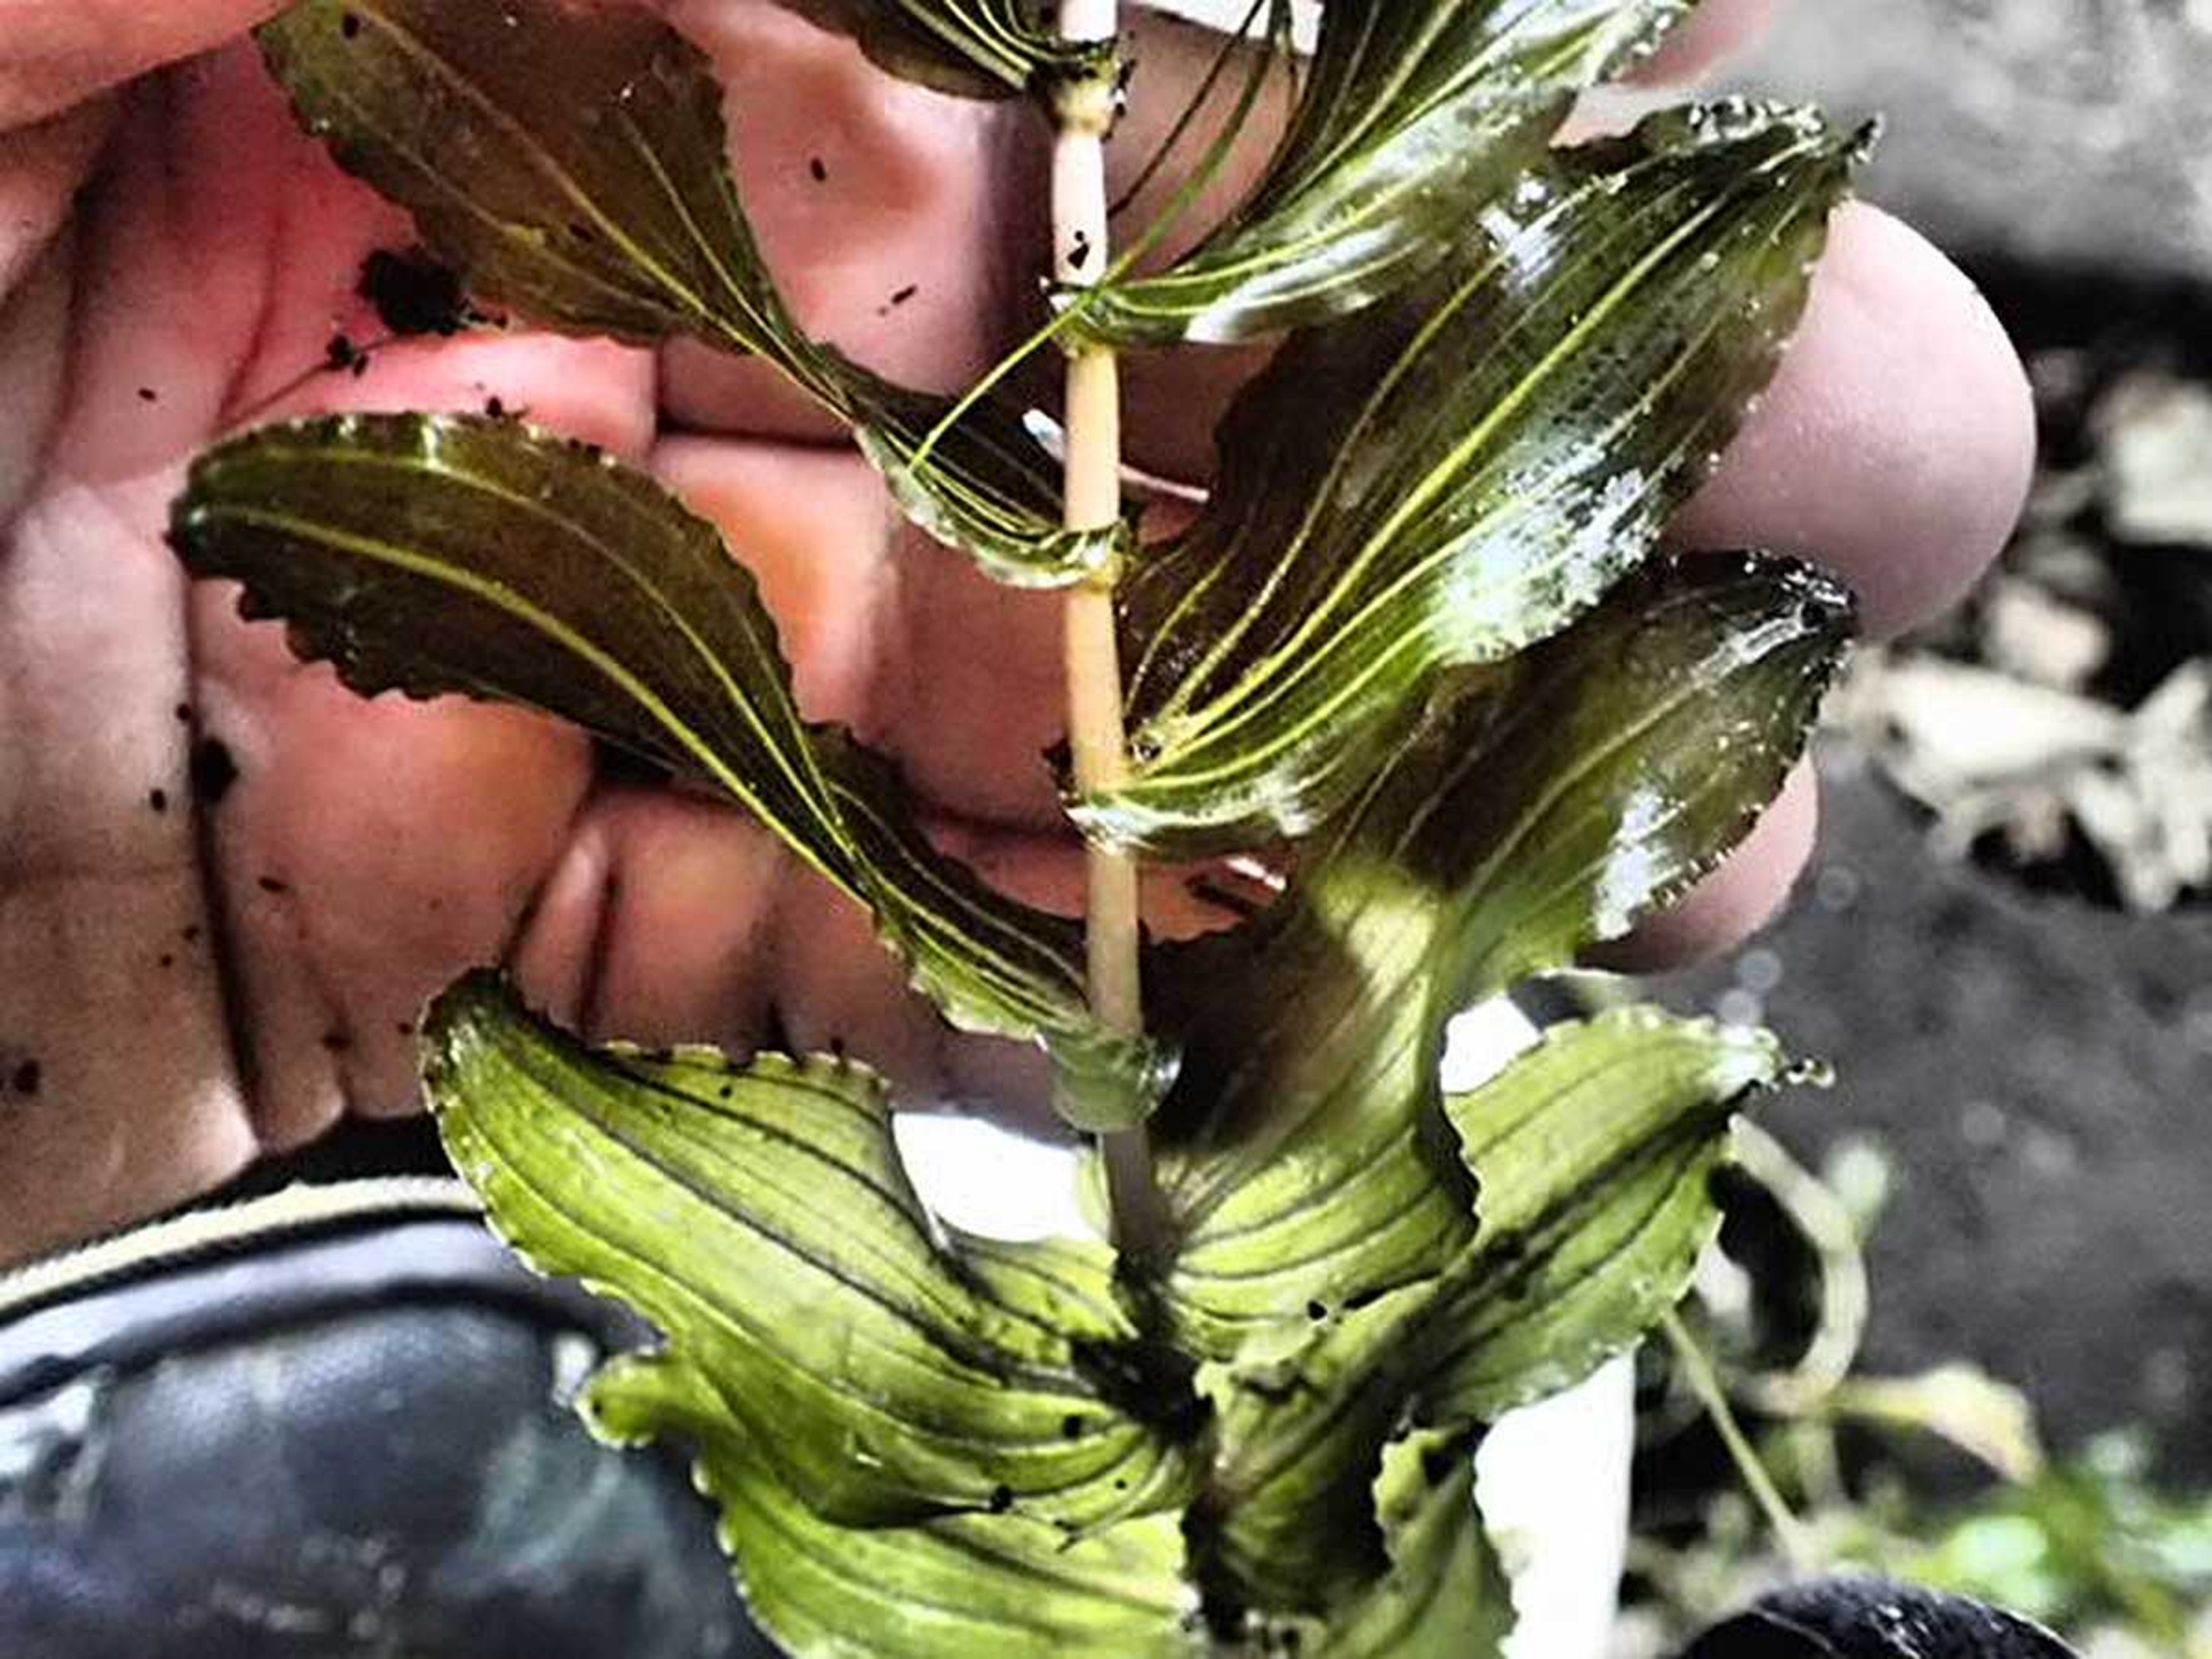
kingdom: Plantae
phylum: Tracheophyta
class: Liliopsida
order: Alismatales
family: Potamogetonaceae
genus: Potamogeton
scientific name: Potamogeton perfoliatus
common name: Hjertebladet vandaks
